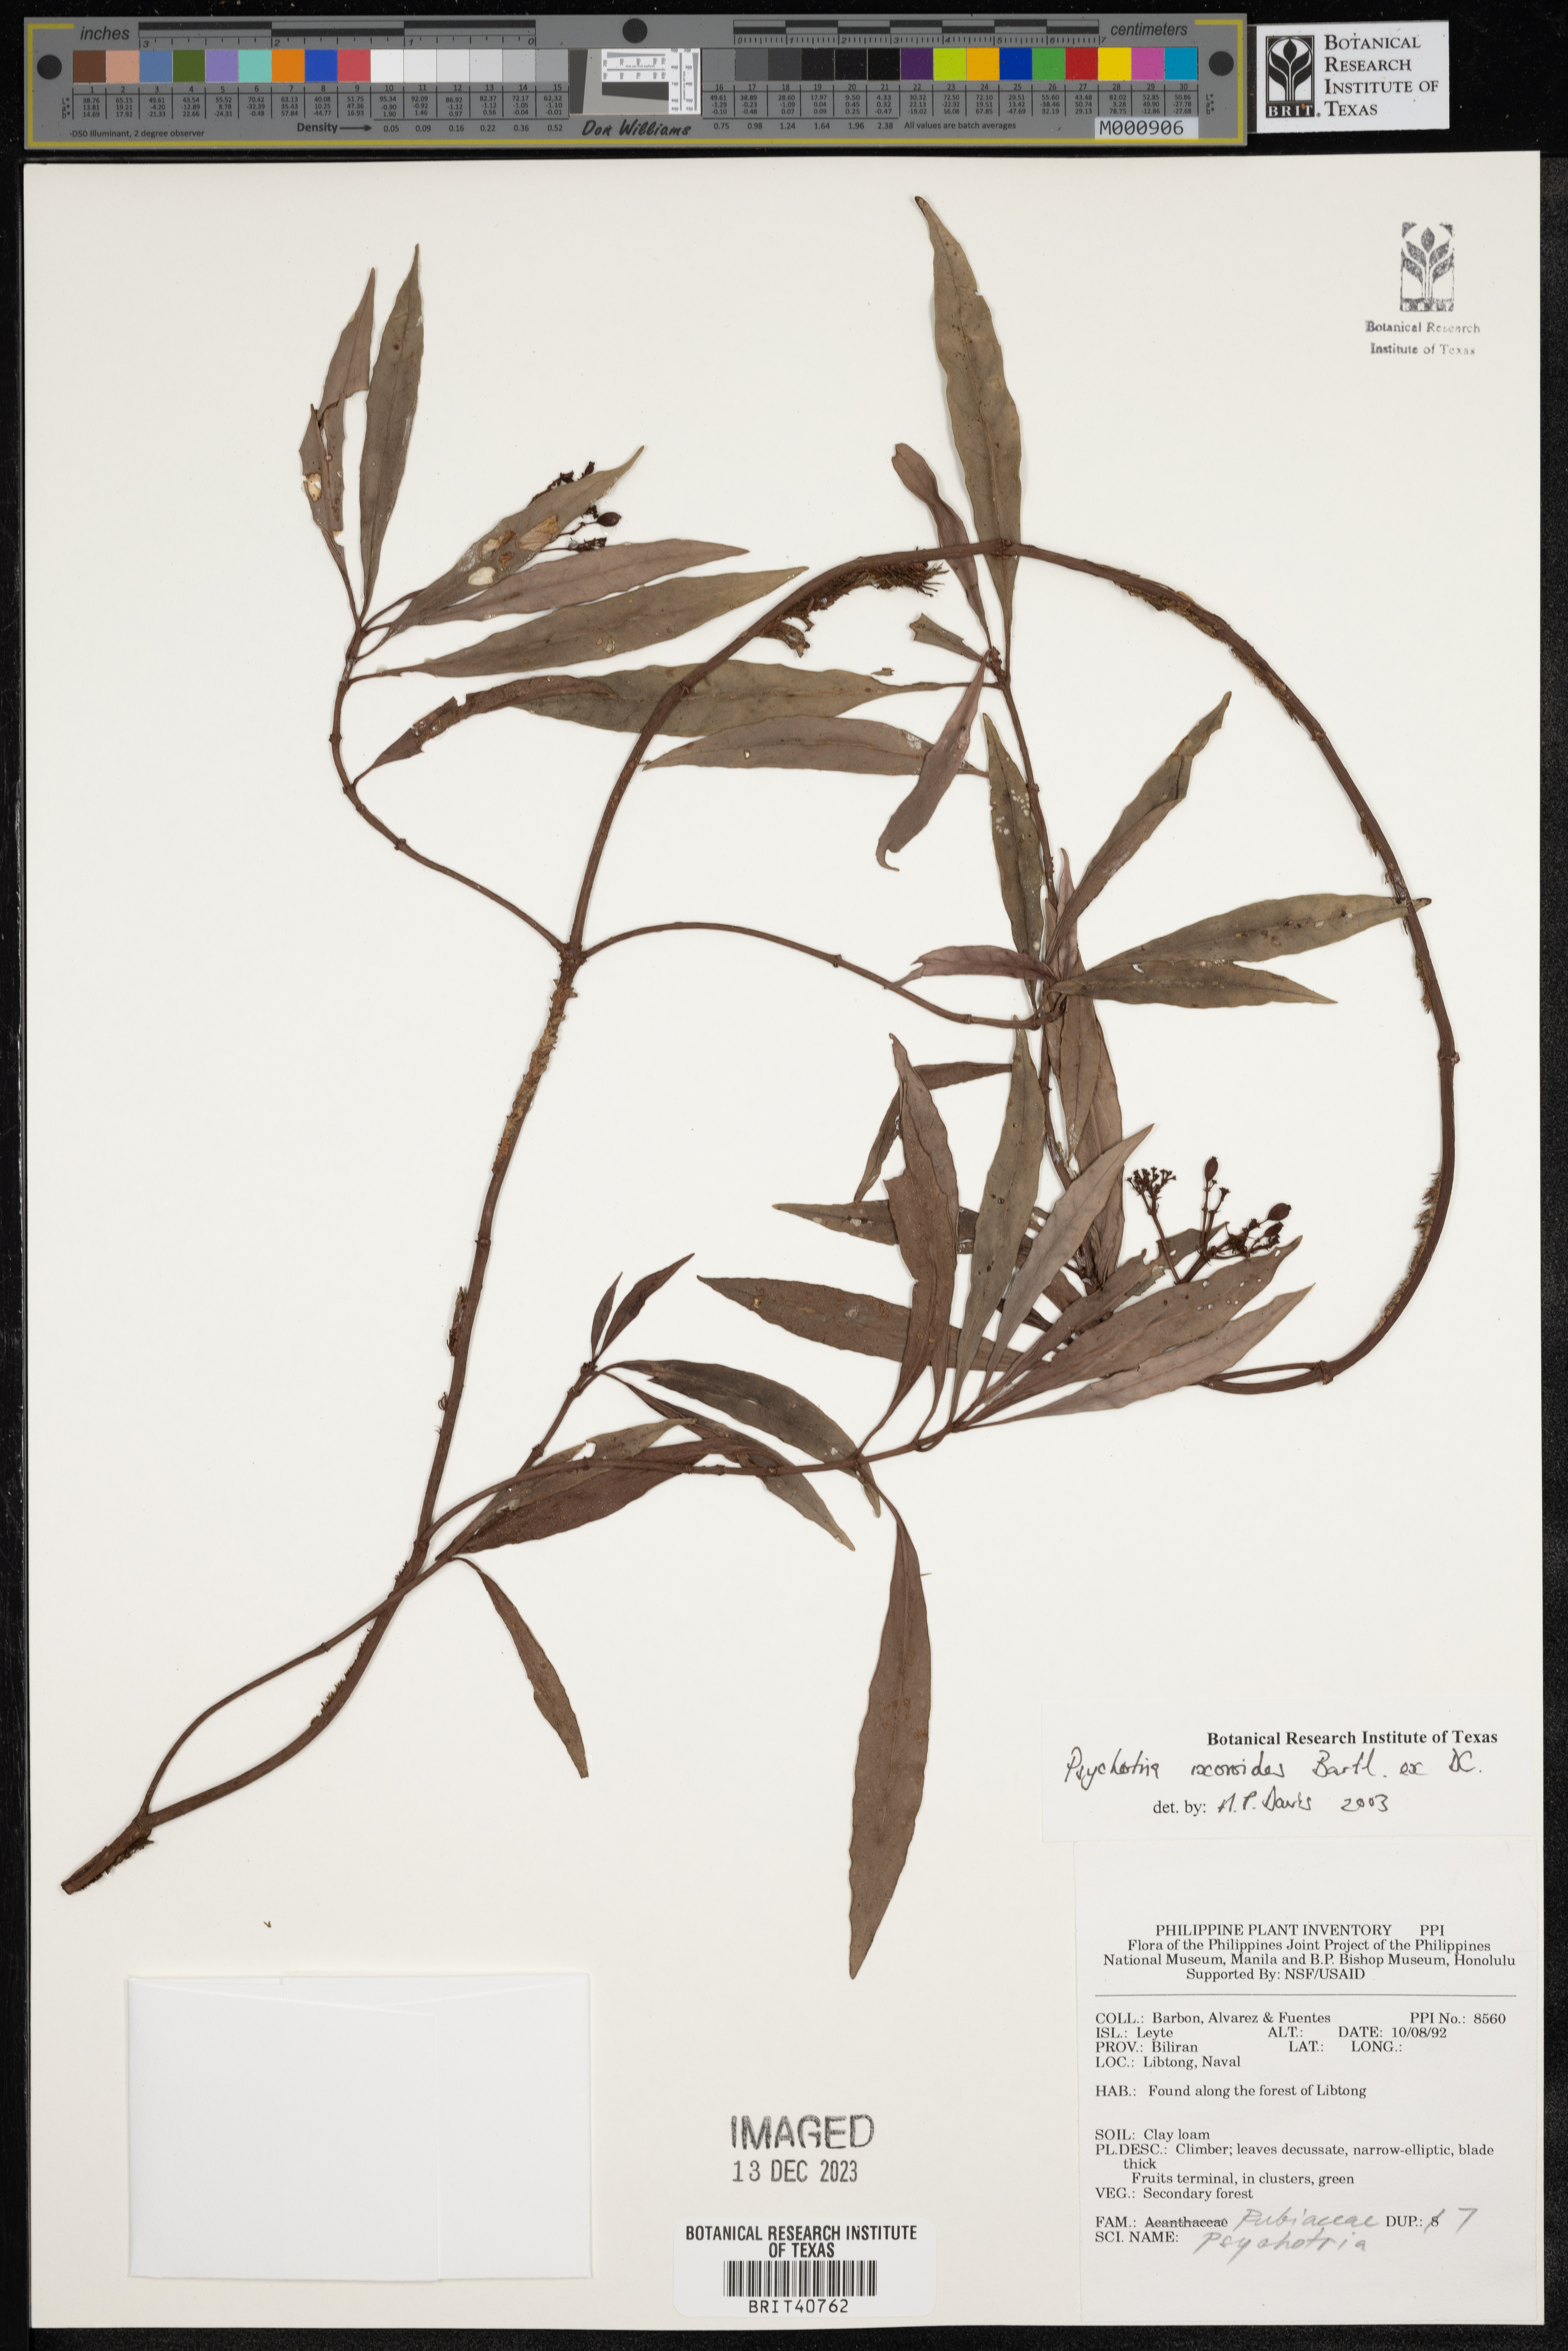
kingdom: Plantae
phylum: Tracheophyta
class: Magnoliopsida
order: Gentianales
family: Rubiaceae
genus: Psychotria
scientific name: Psychotria ixoroides
